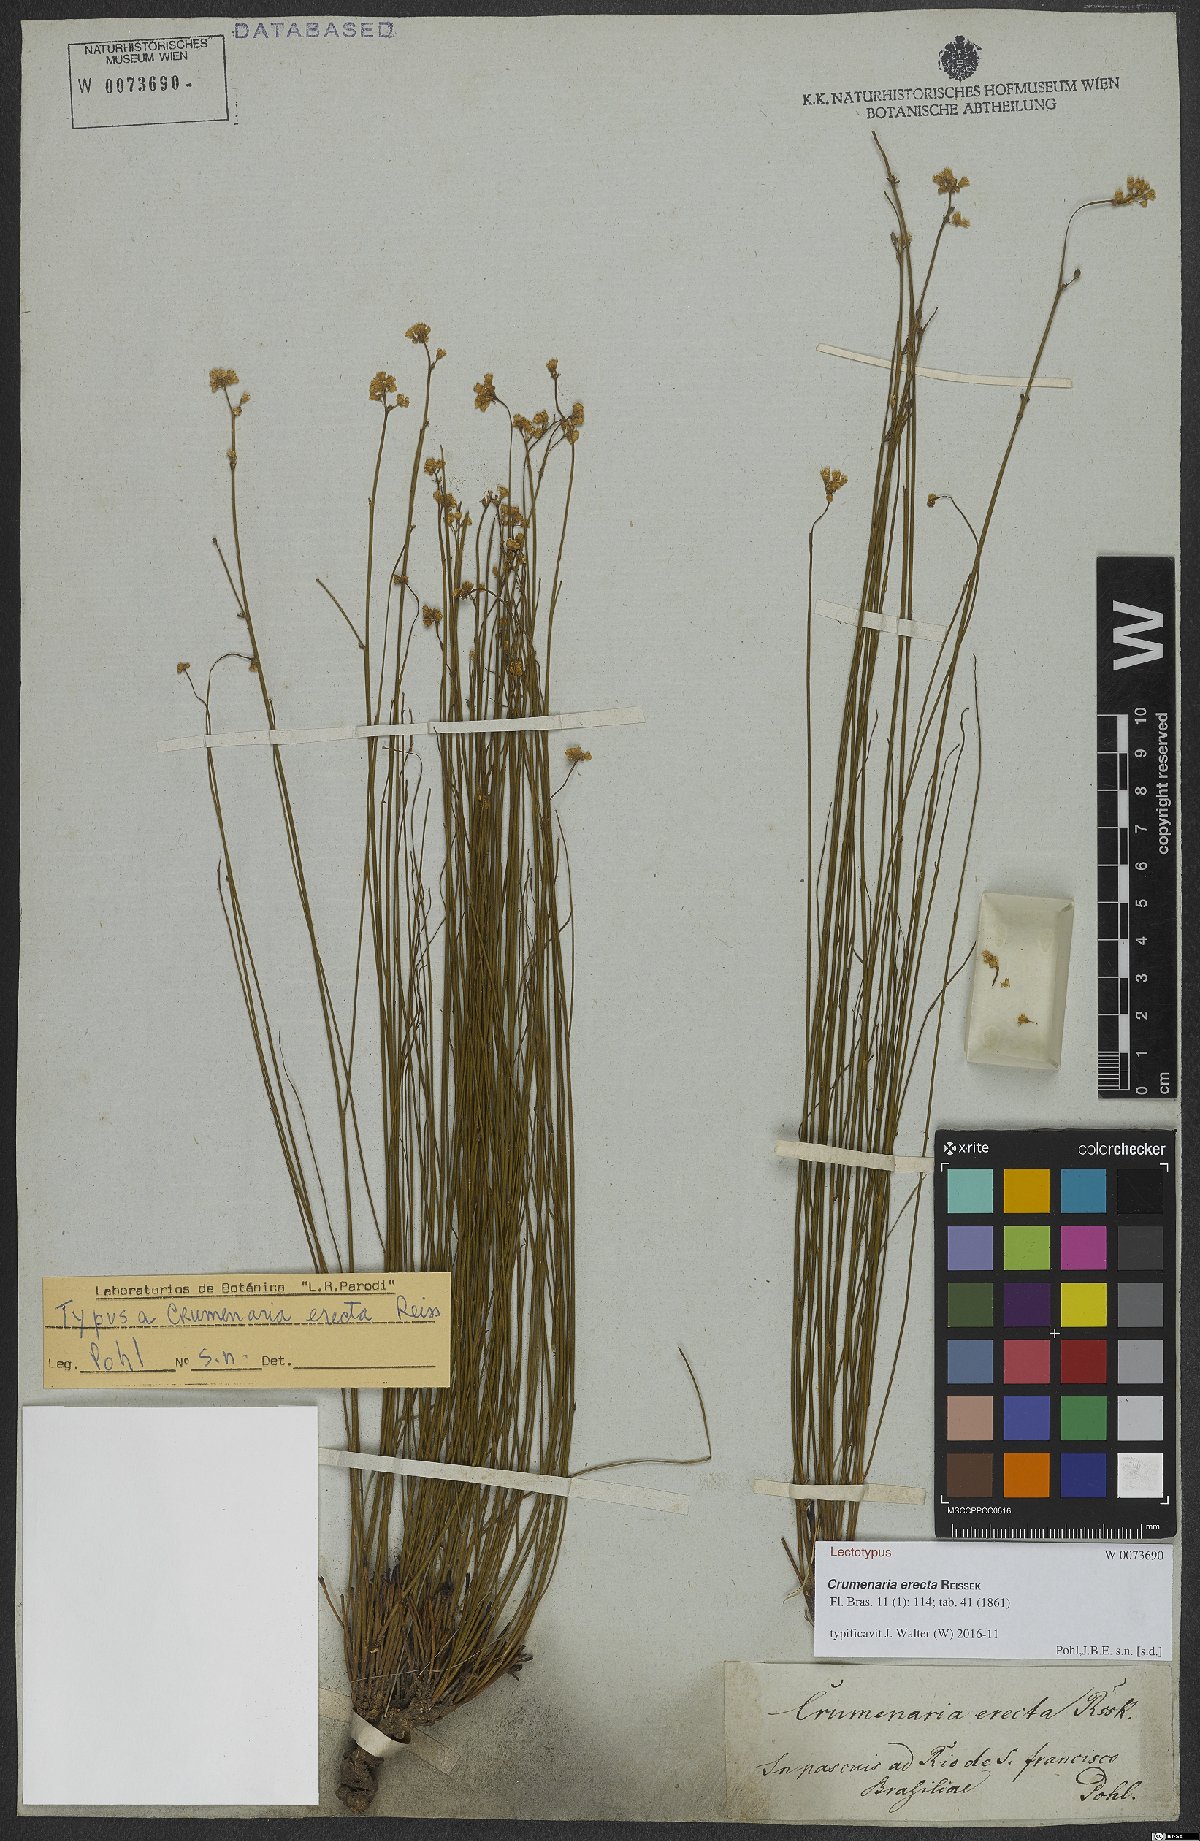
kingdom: Plantae
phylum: Tracheophyta
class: Magnoliopsida
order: Rosales
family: Rhamnaceae
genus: Crumenaria
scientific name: Crumenaria erecta
